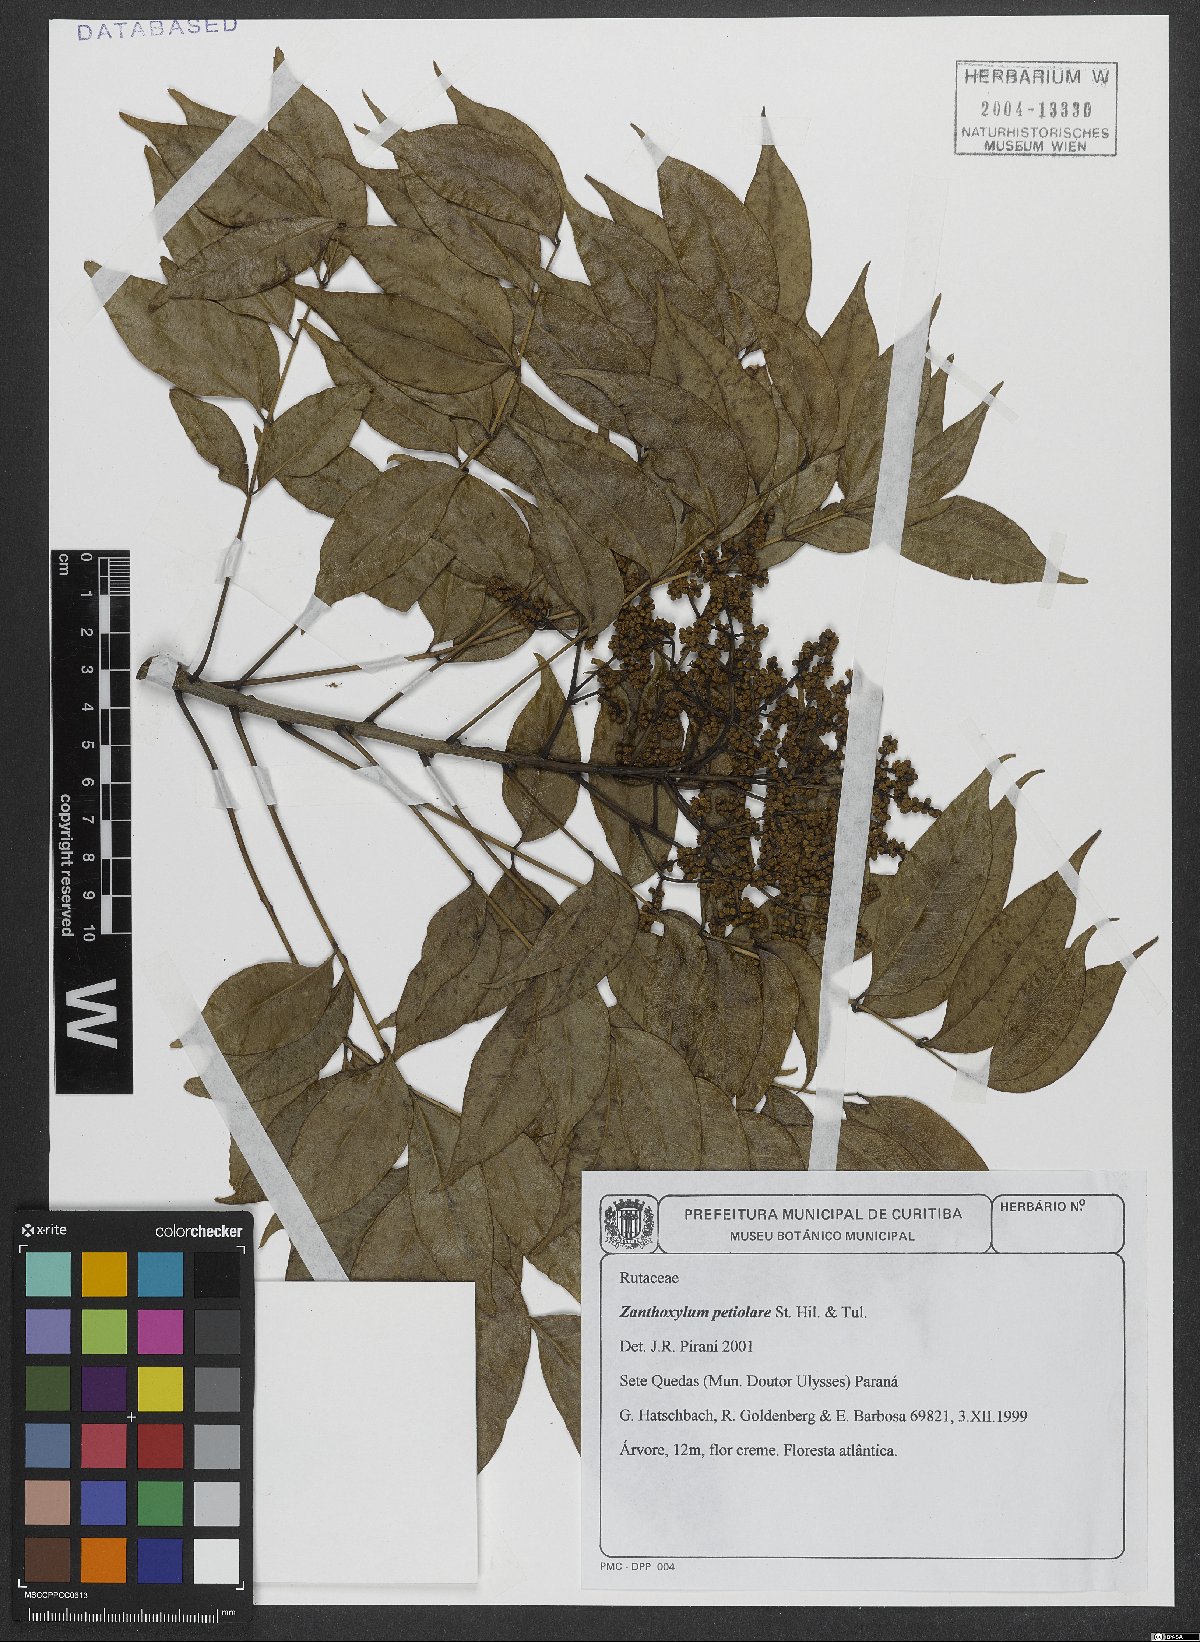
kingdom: Plantae
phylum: Tracheophyta
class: Magnoliopsida
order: Sapindales
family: Rutaceae
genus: Zanthoxylum
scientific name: Zanthoxylum petiolare
